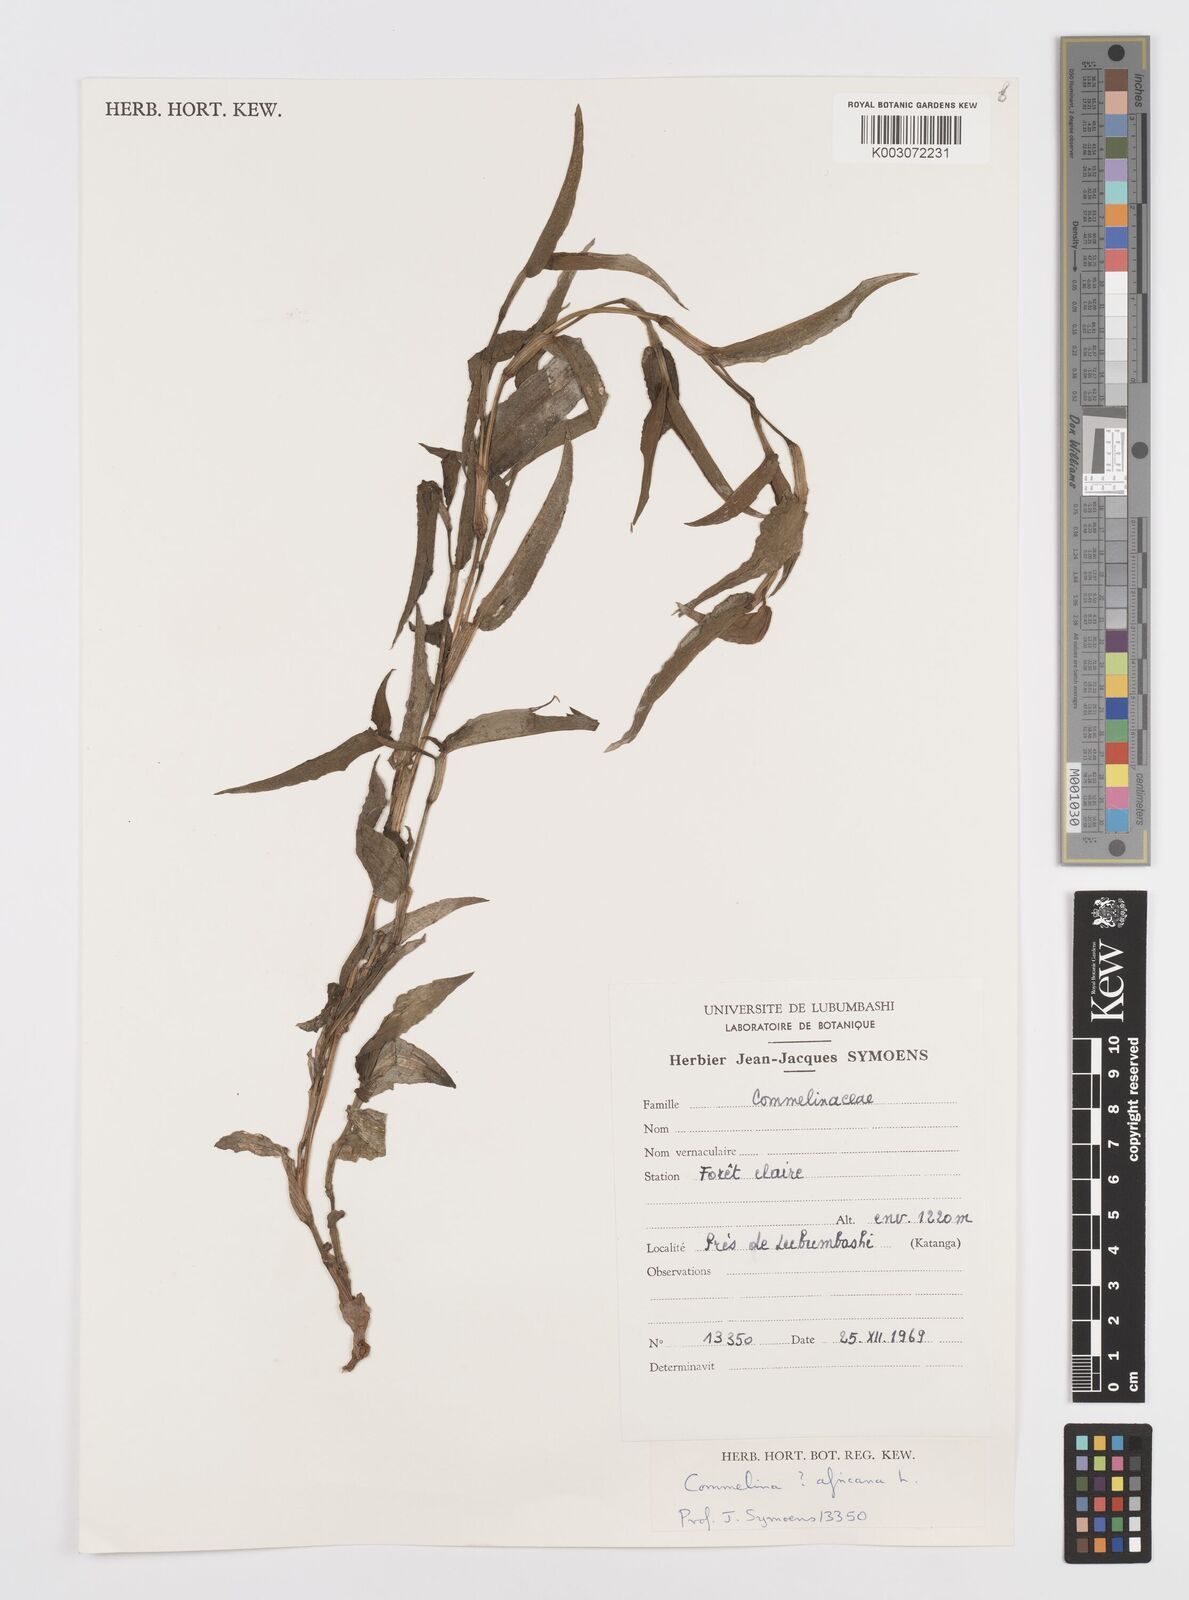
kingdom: Plantae
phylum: Tracheophyta
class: Liliopsida
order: Commelinales
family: Commelinaceae
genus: Commelina
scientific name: Commelina africana
